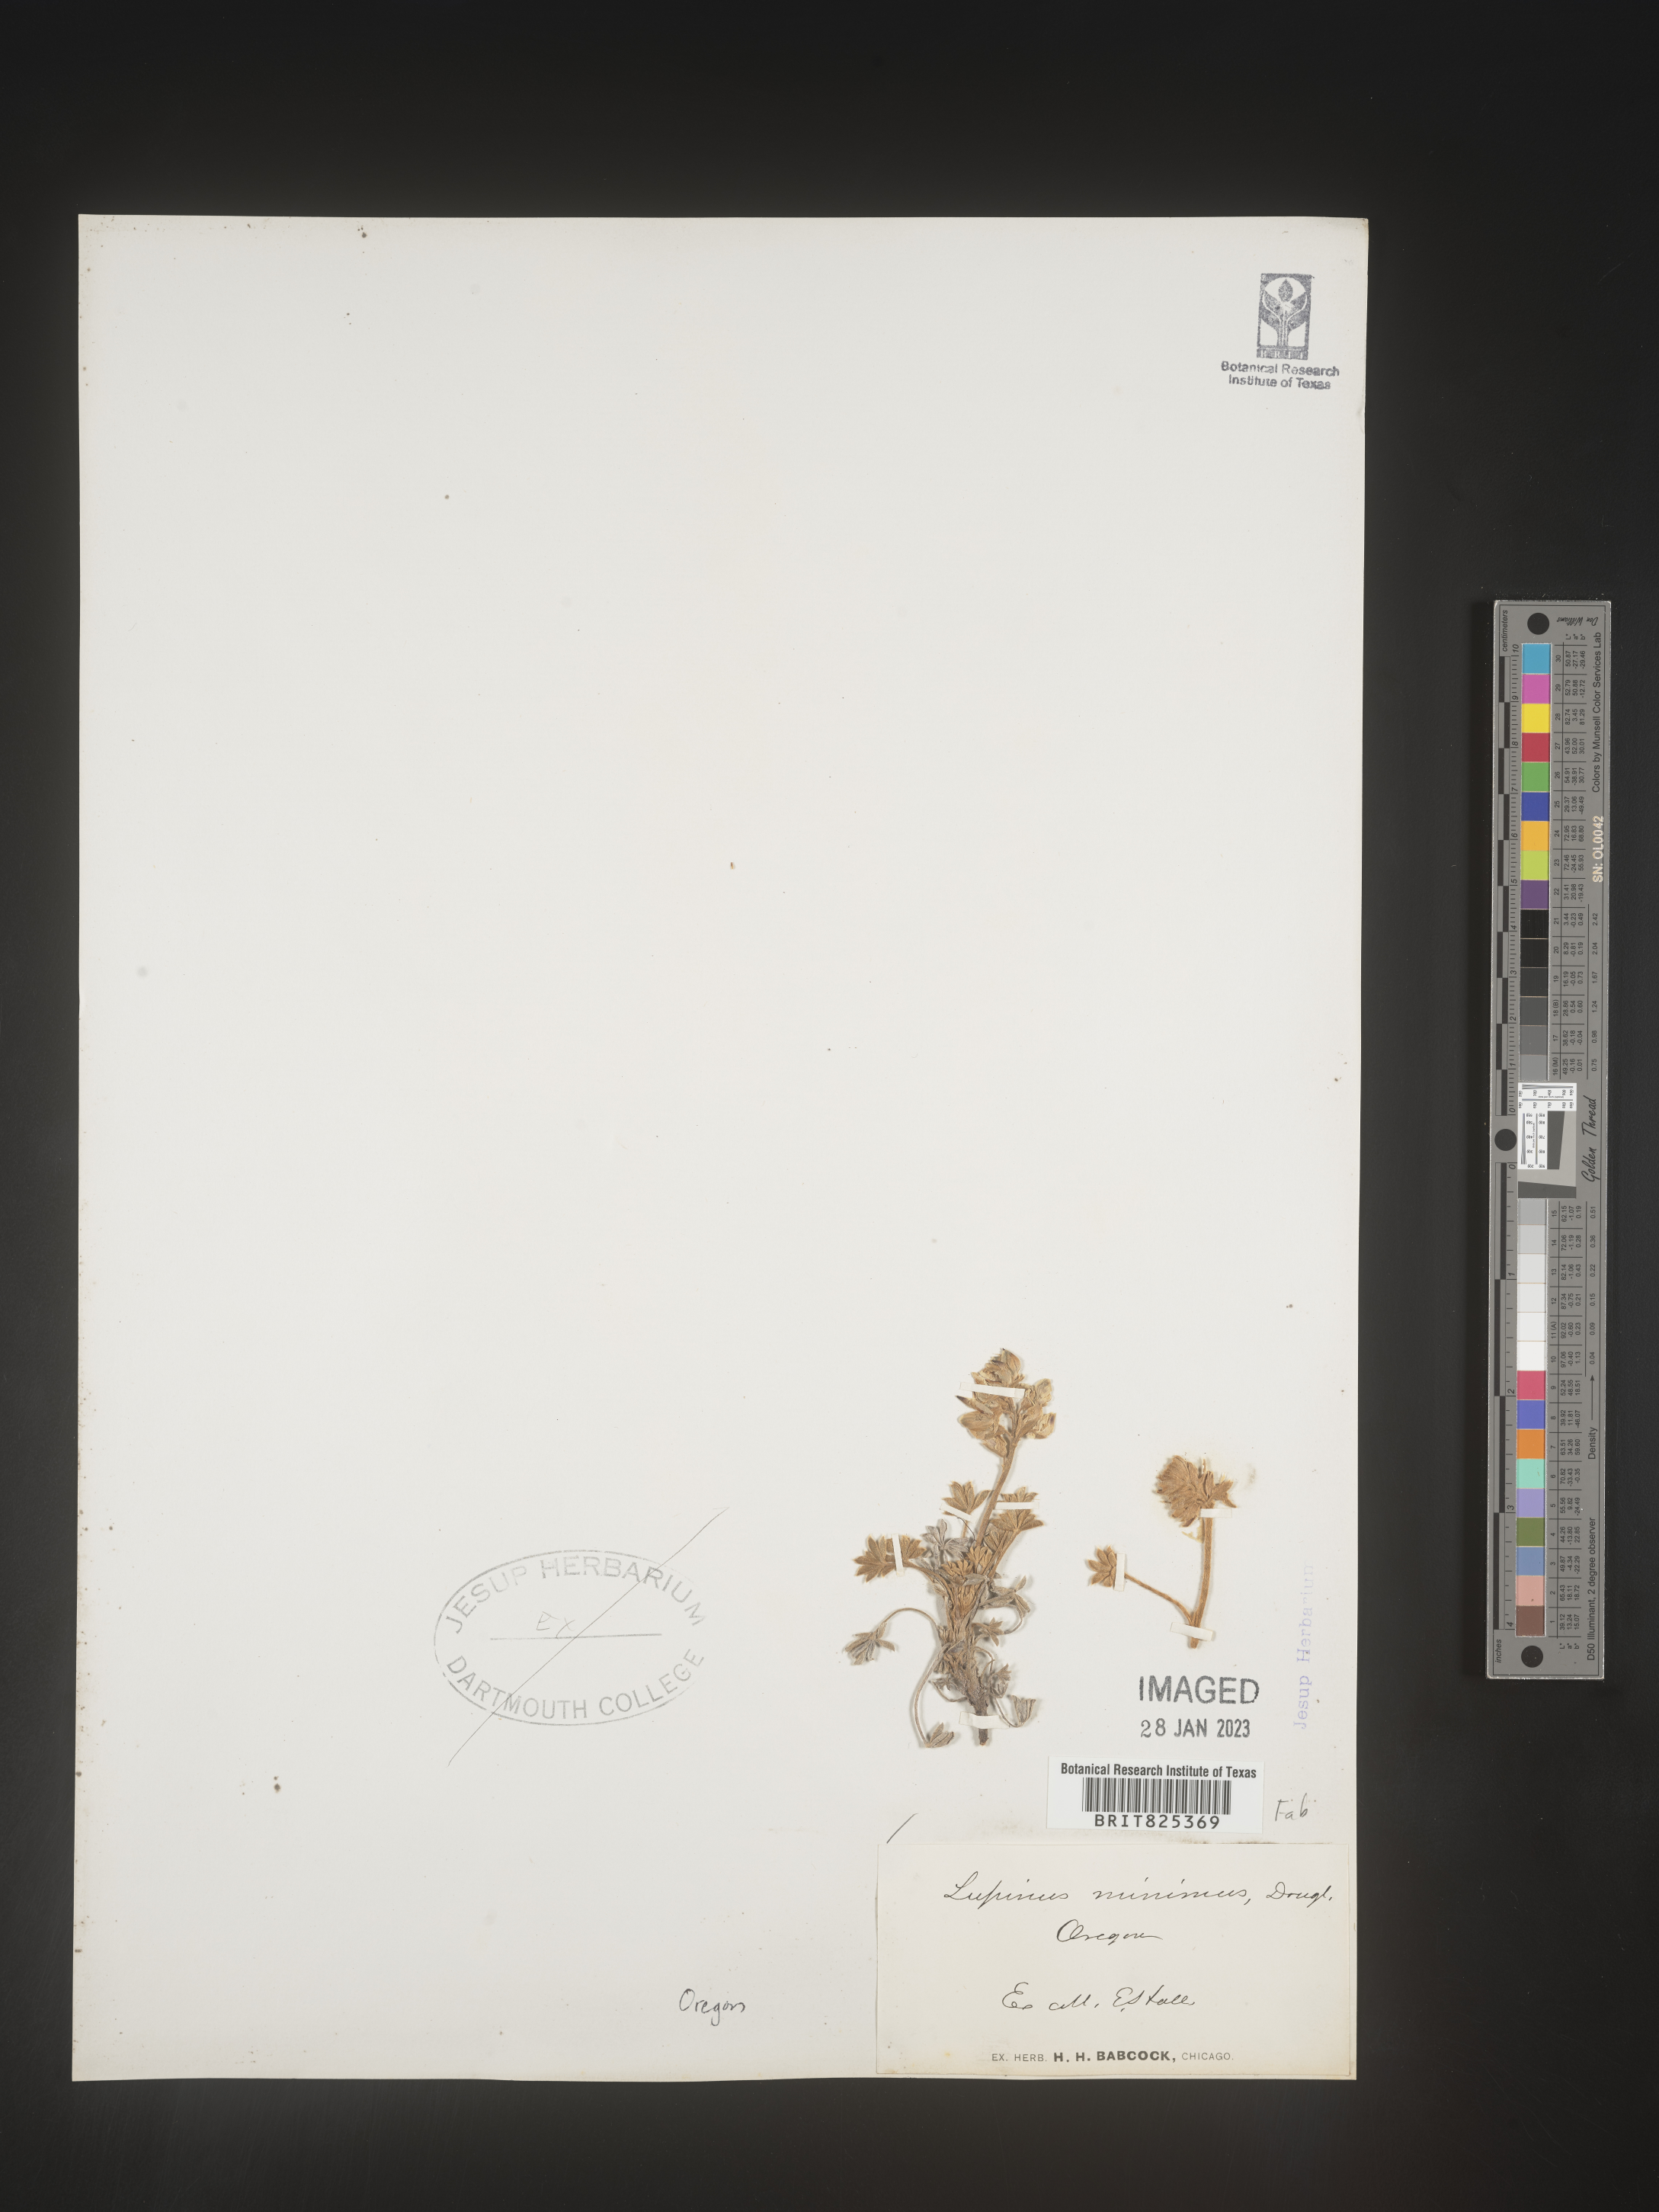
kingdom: Plantae
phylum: Tracheophyta
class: Magnoliopsida
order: Fabales
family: Fabaceae
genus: Lupinus
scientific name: Lupinus
